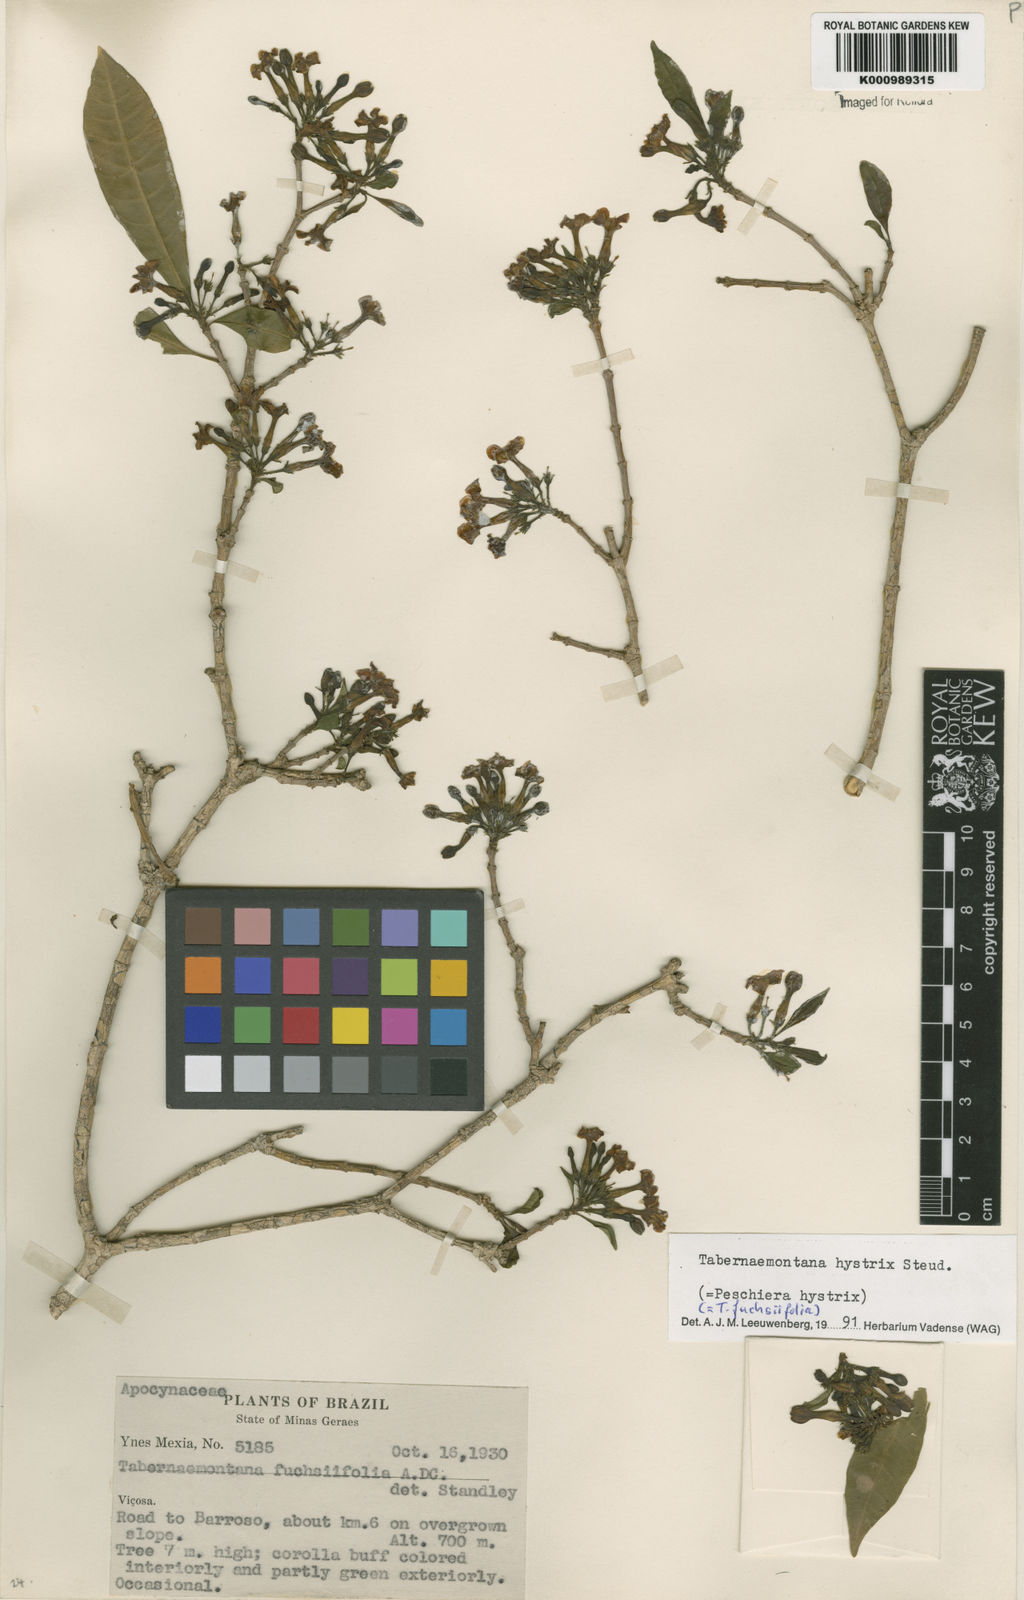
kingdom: Plantae
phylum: Tracheophyta
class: Magnoliopsida
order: Gentianales
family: Apocynaceae
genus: Tabernaemontana
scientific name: Tabernaemontana hystrix
